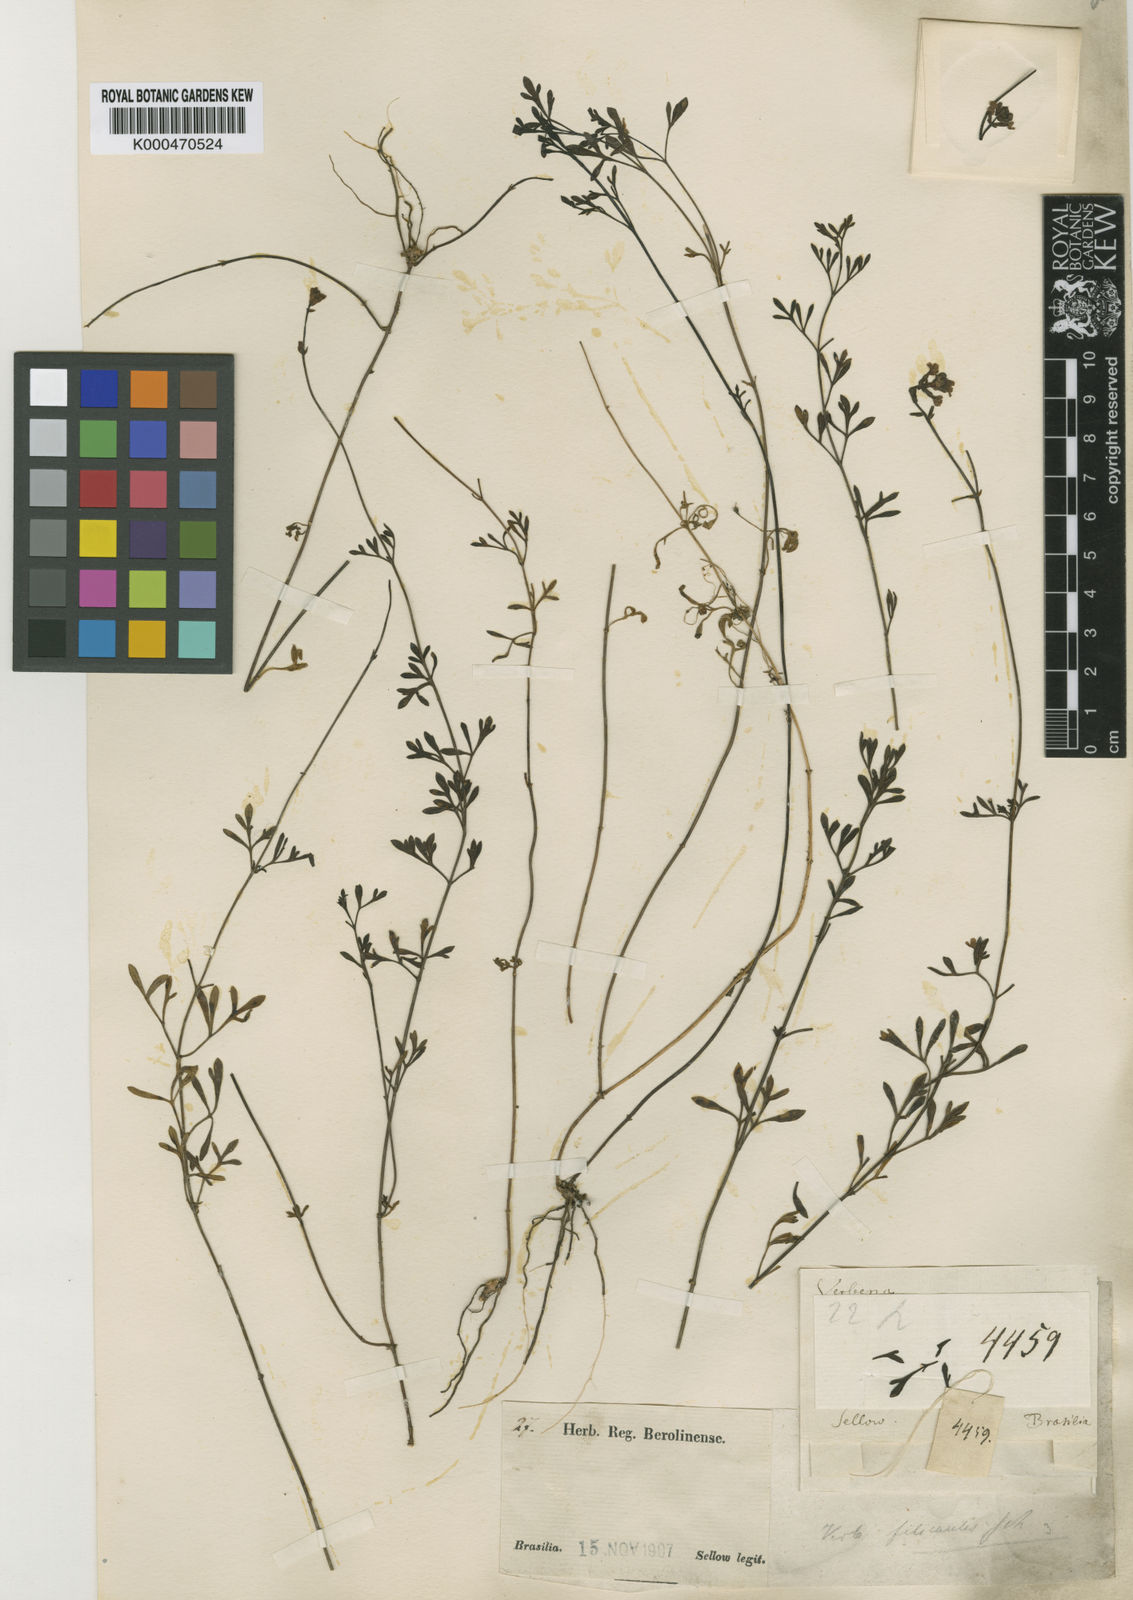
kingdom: Plantae
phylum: Tracheophyta
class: Magnoliopsida
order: Lamiales
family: Verbenaceae
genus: Verbena
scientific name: Verbena filicaulis
